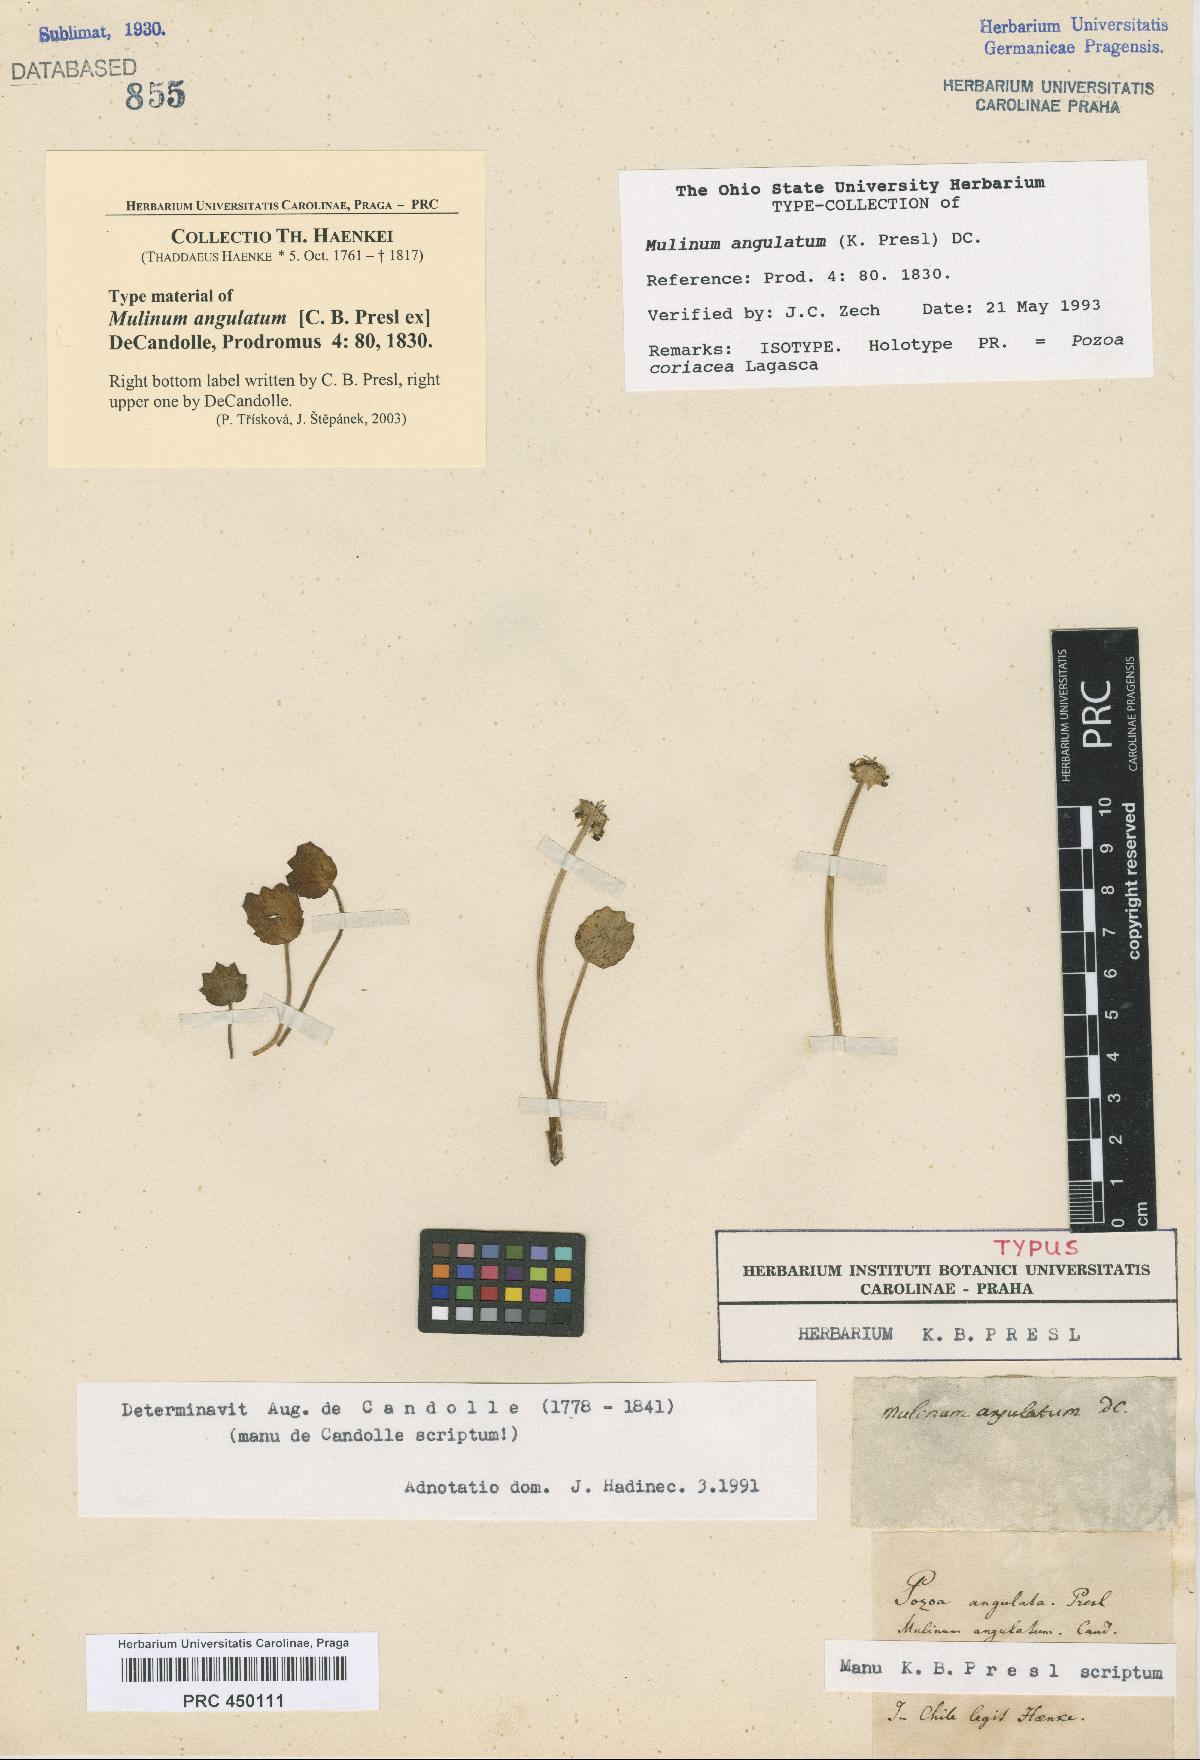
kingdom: Plantae
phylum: Tracheophyta
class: Magnoliopsida
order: Apiales
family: Apiaceae
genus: Pozoa
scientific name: Pozoa coriacea
